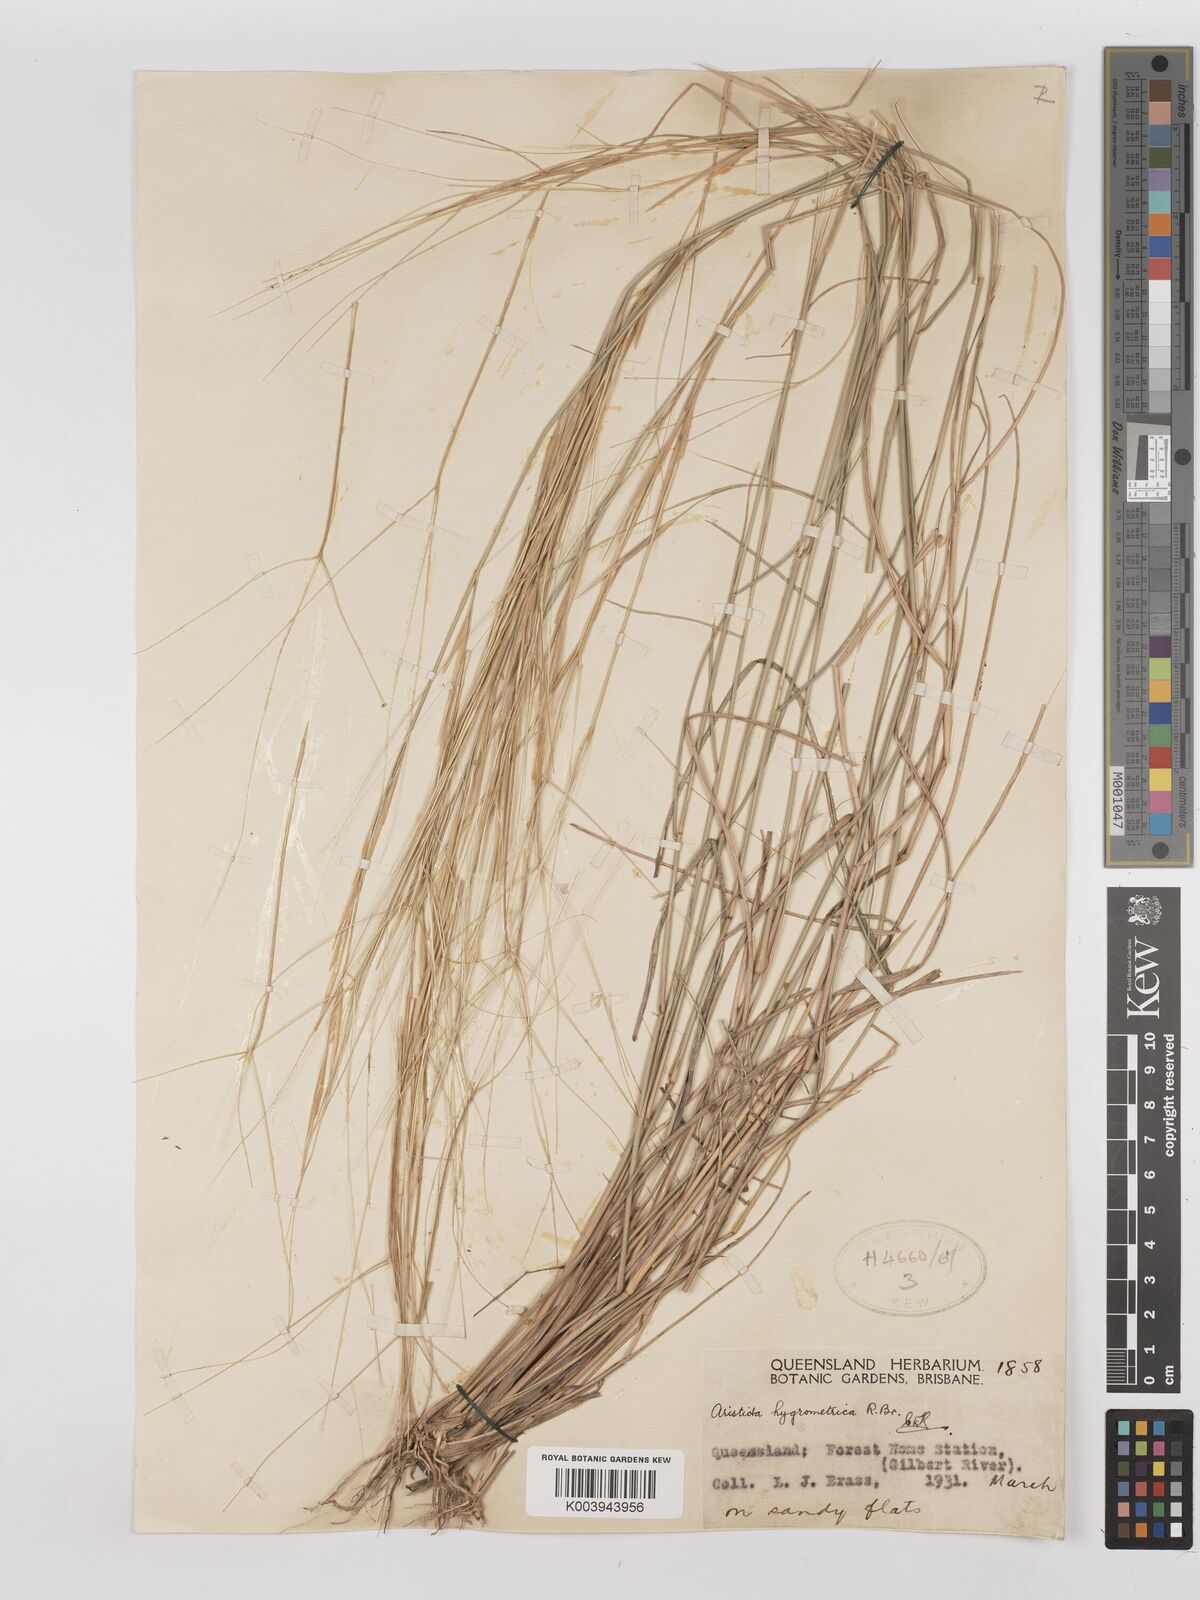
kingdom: Plantae
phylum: Tracheophyta
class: Liliopsida
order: Poales
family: Poaceae
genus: Aristida
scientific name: Aristida hygrometrica
